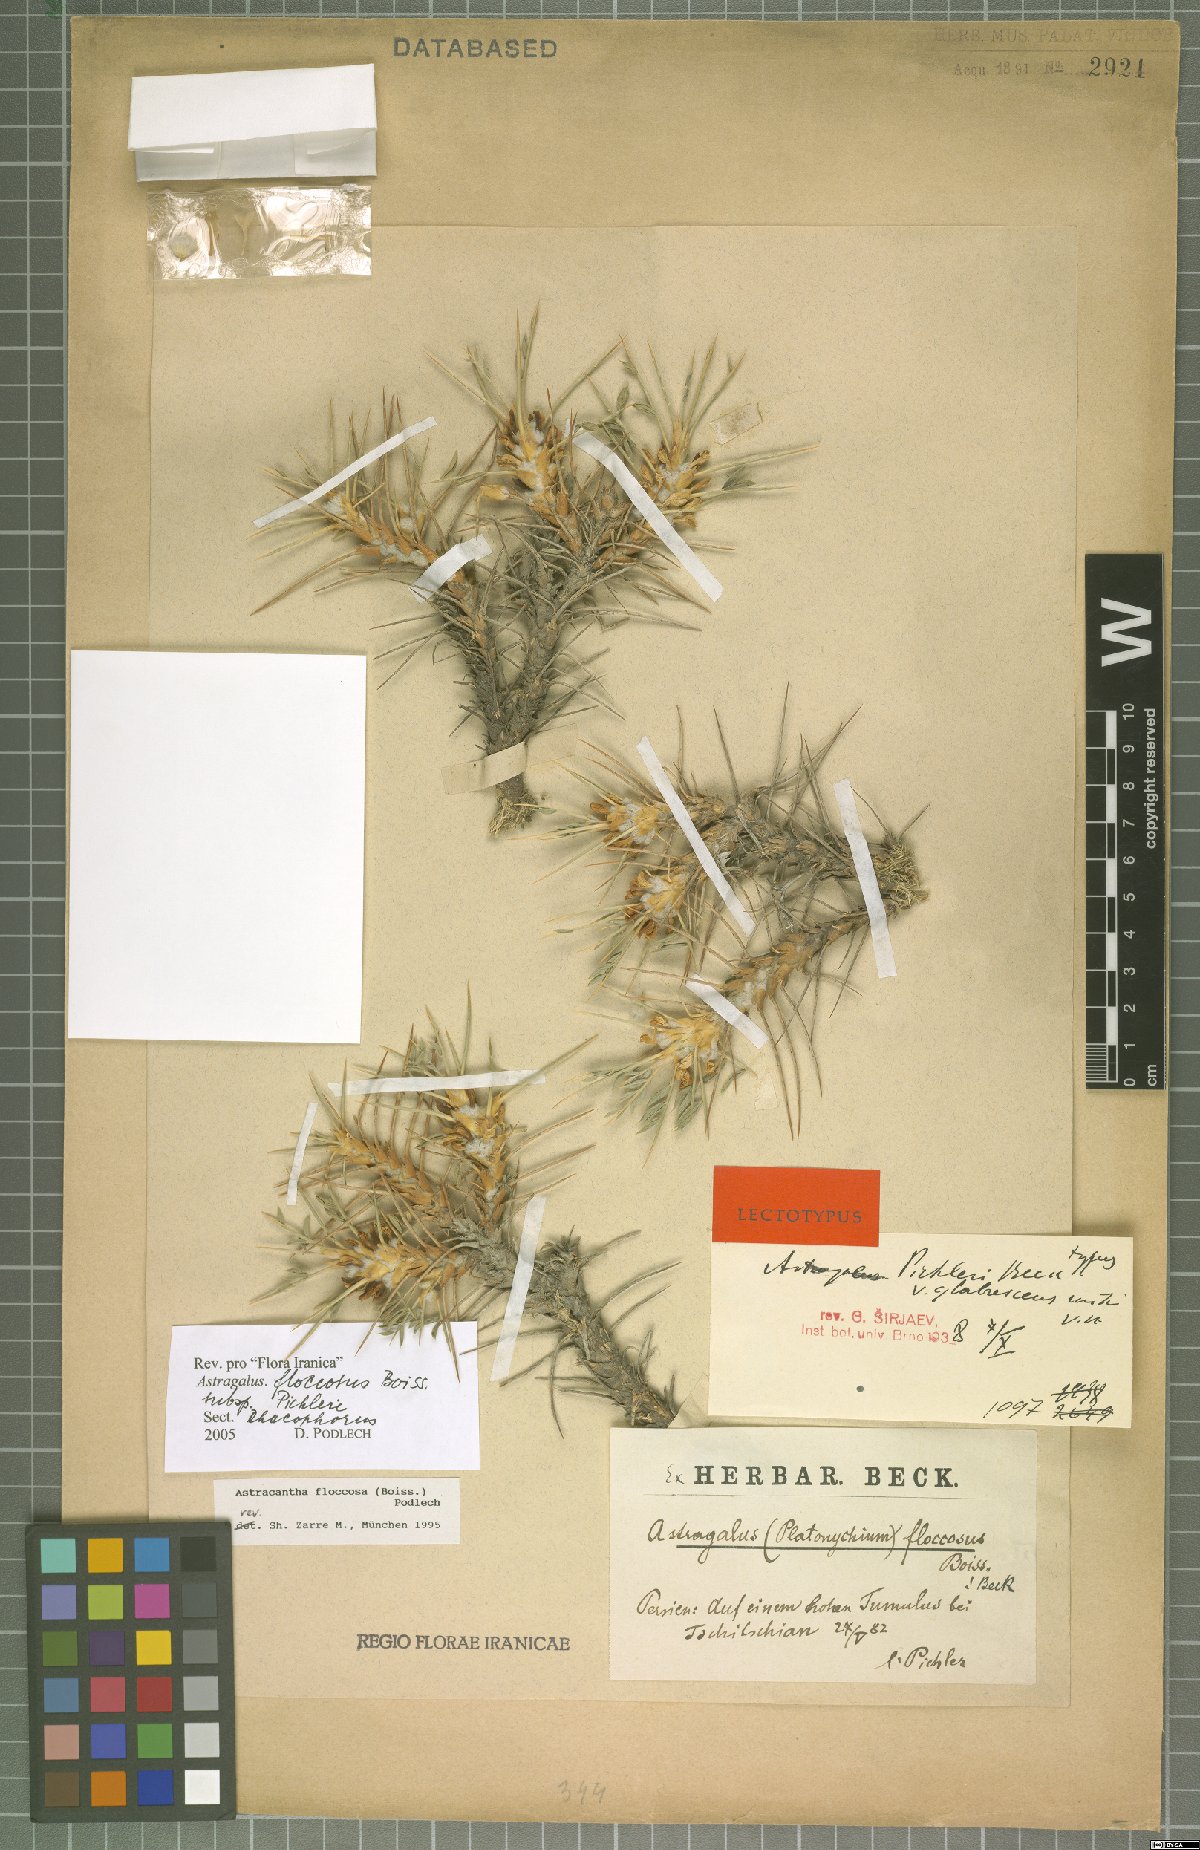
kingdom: Plantae
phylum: Tracheophyta
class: Magnoliopsida
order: Fabales
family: Fabaceae
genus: Astragalus
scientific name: Astragalus floccosus
